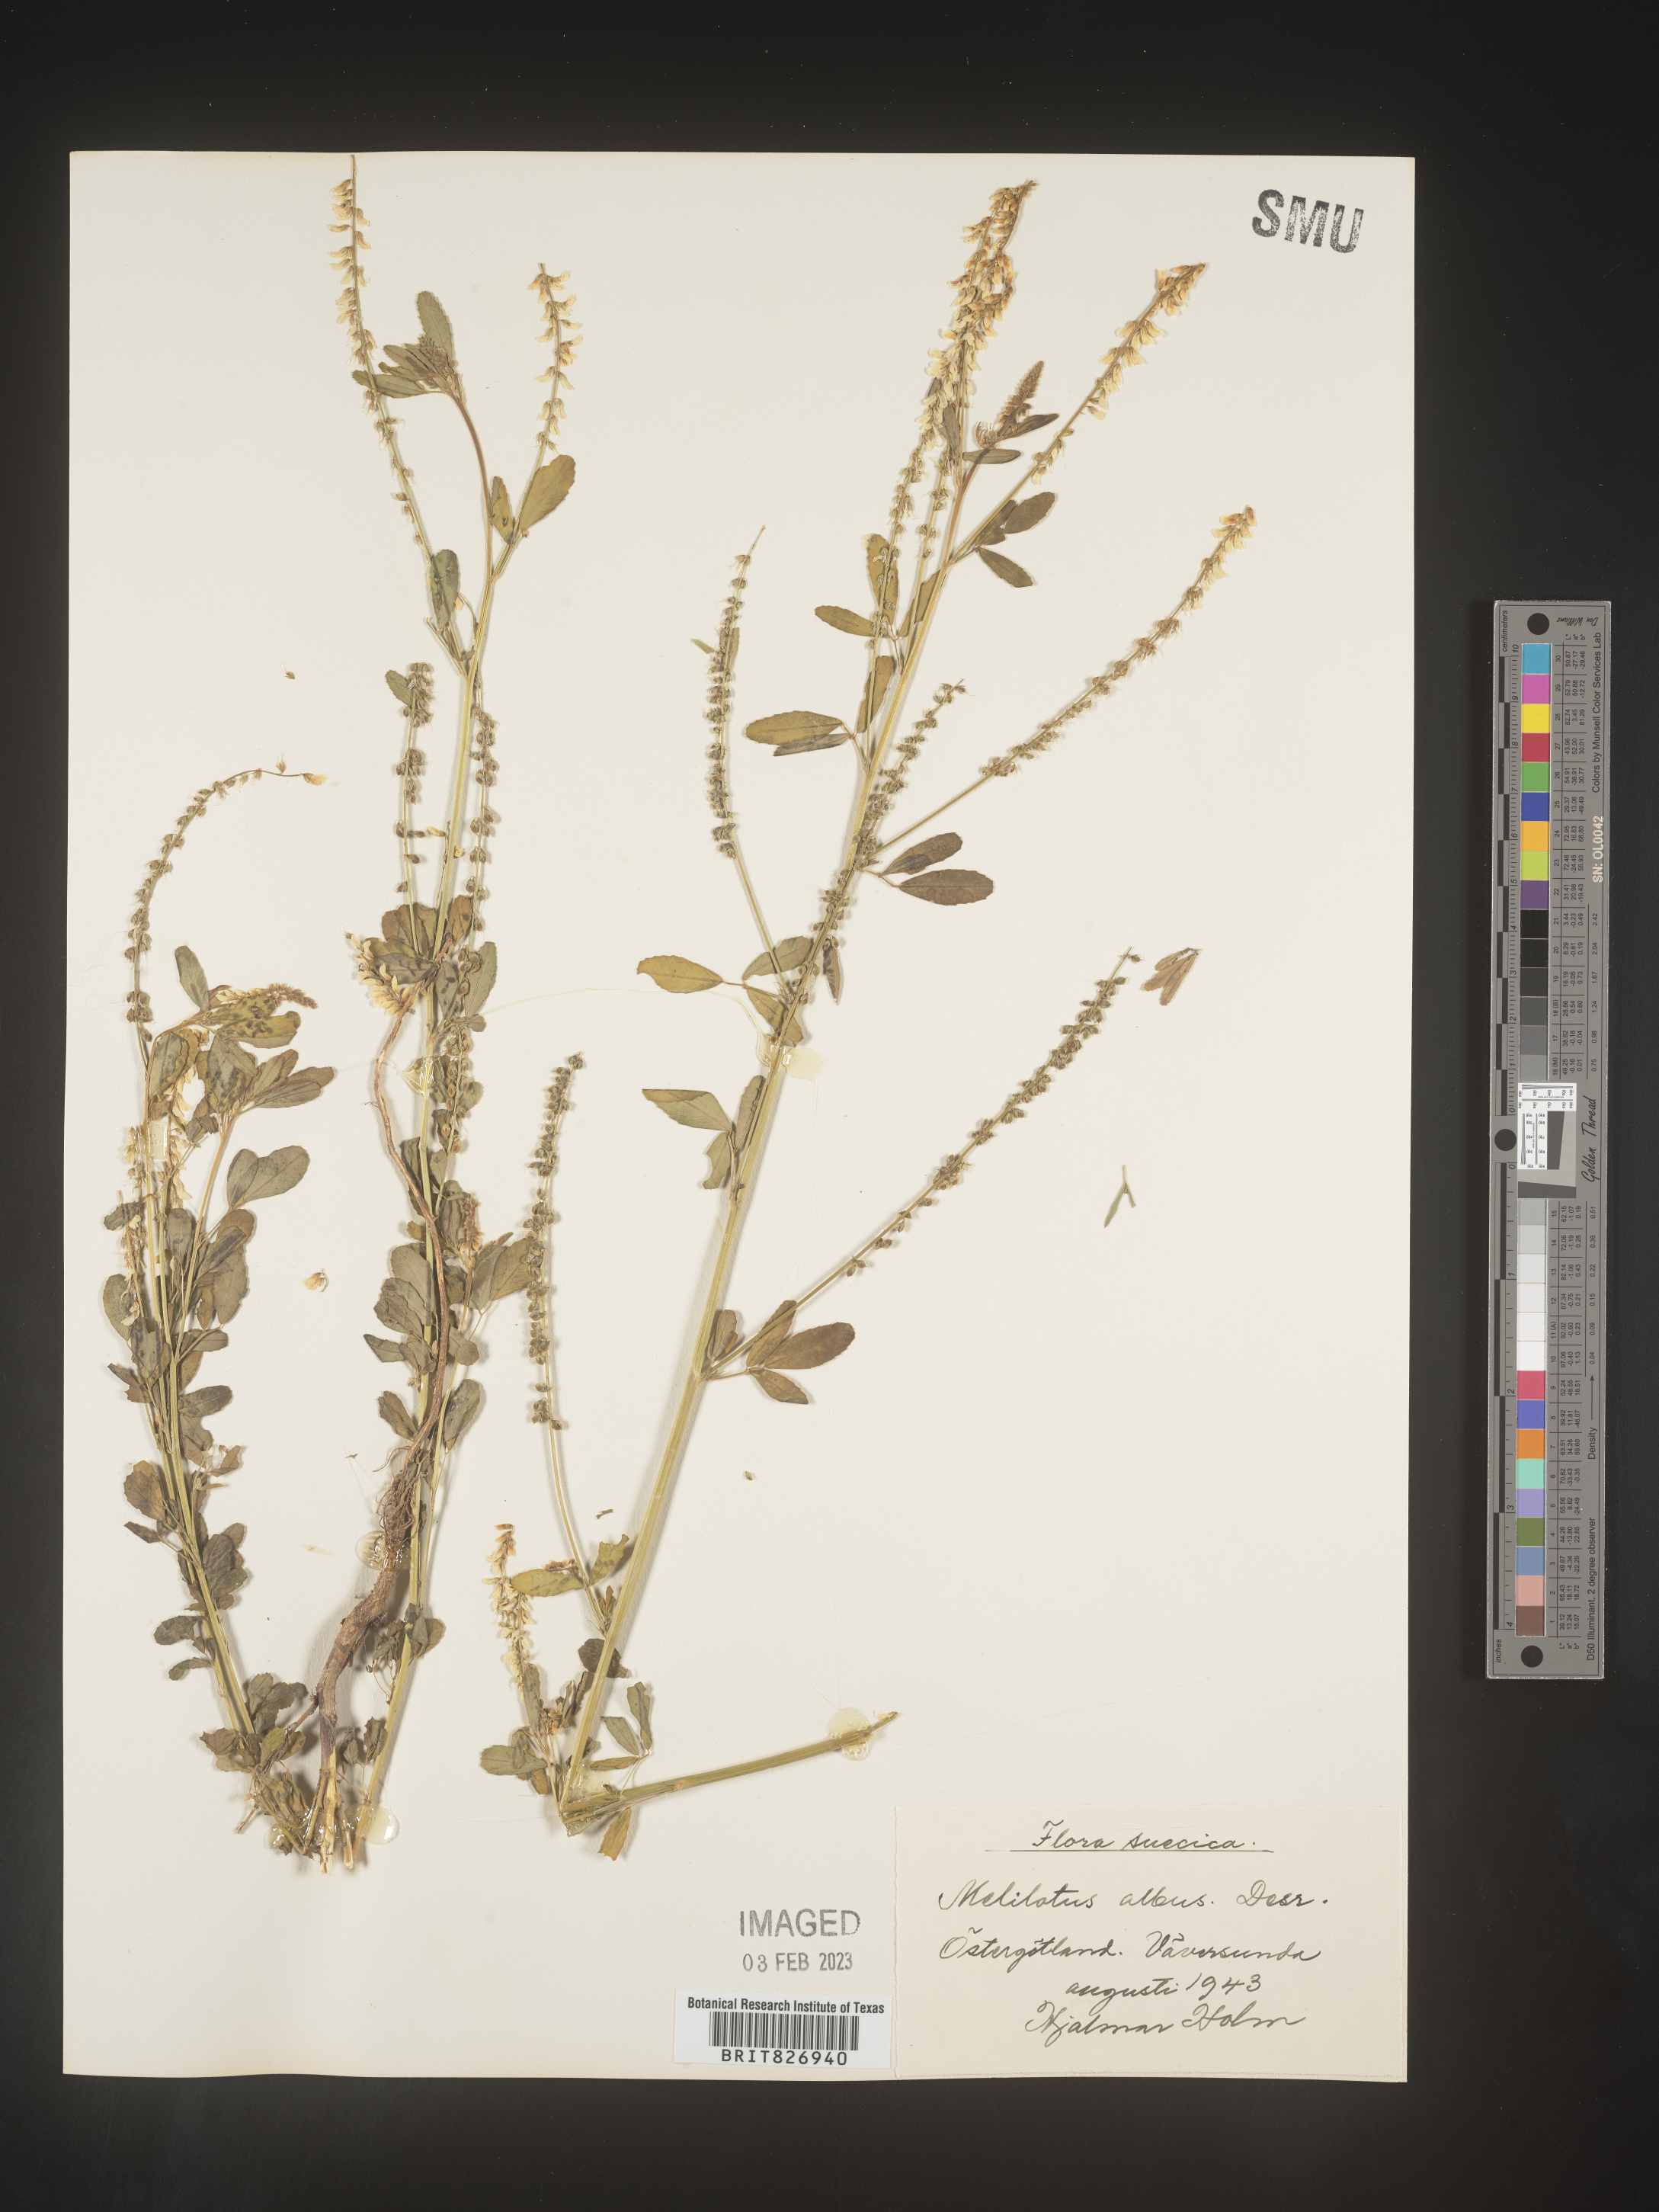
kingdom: Plantae
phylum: Tracheophyta
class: Magnoliopsida
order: Fabales
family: Fabaceae
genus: Melilotus
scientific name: Melilotus
